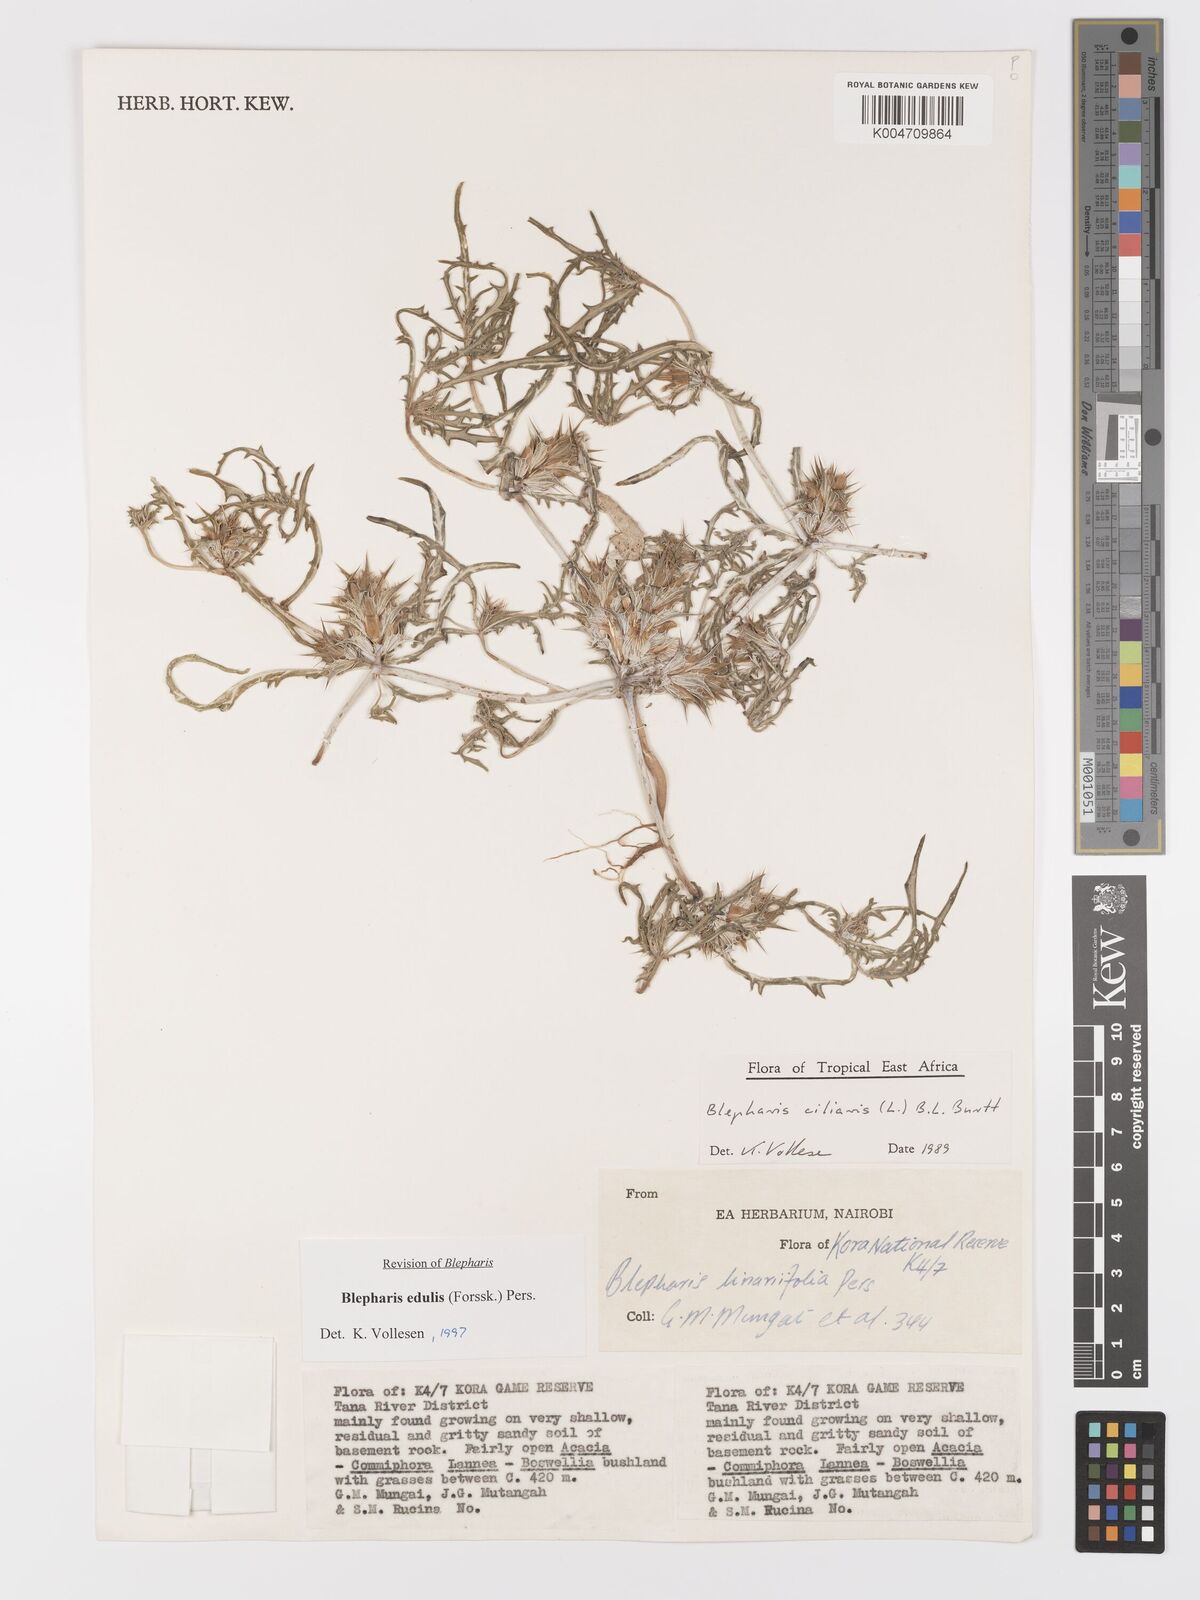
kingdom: Plantae
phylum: Tracheophyta
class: Magnoliopsida
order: Lamiales
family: Acanthaceae
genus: Blepharis
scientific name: Blepharis edulis
